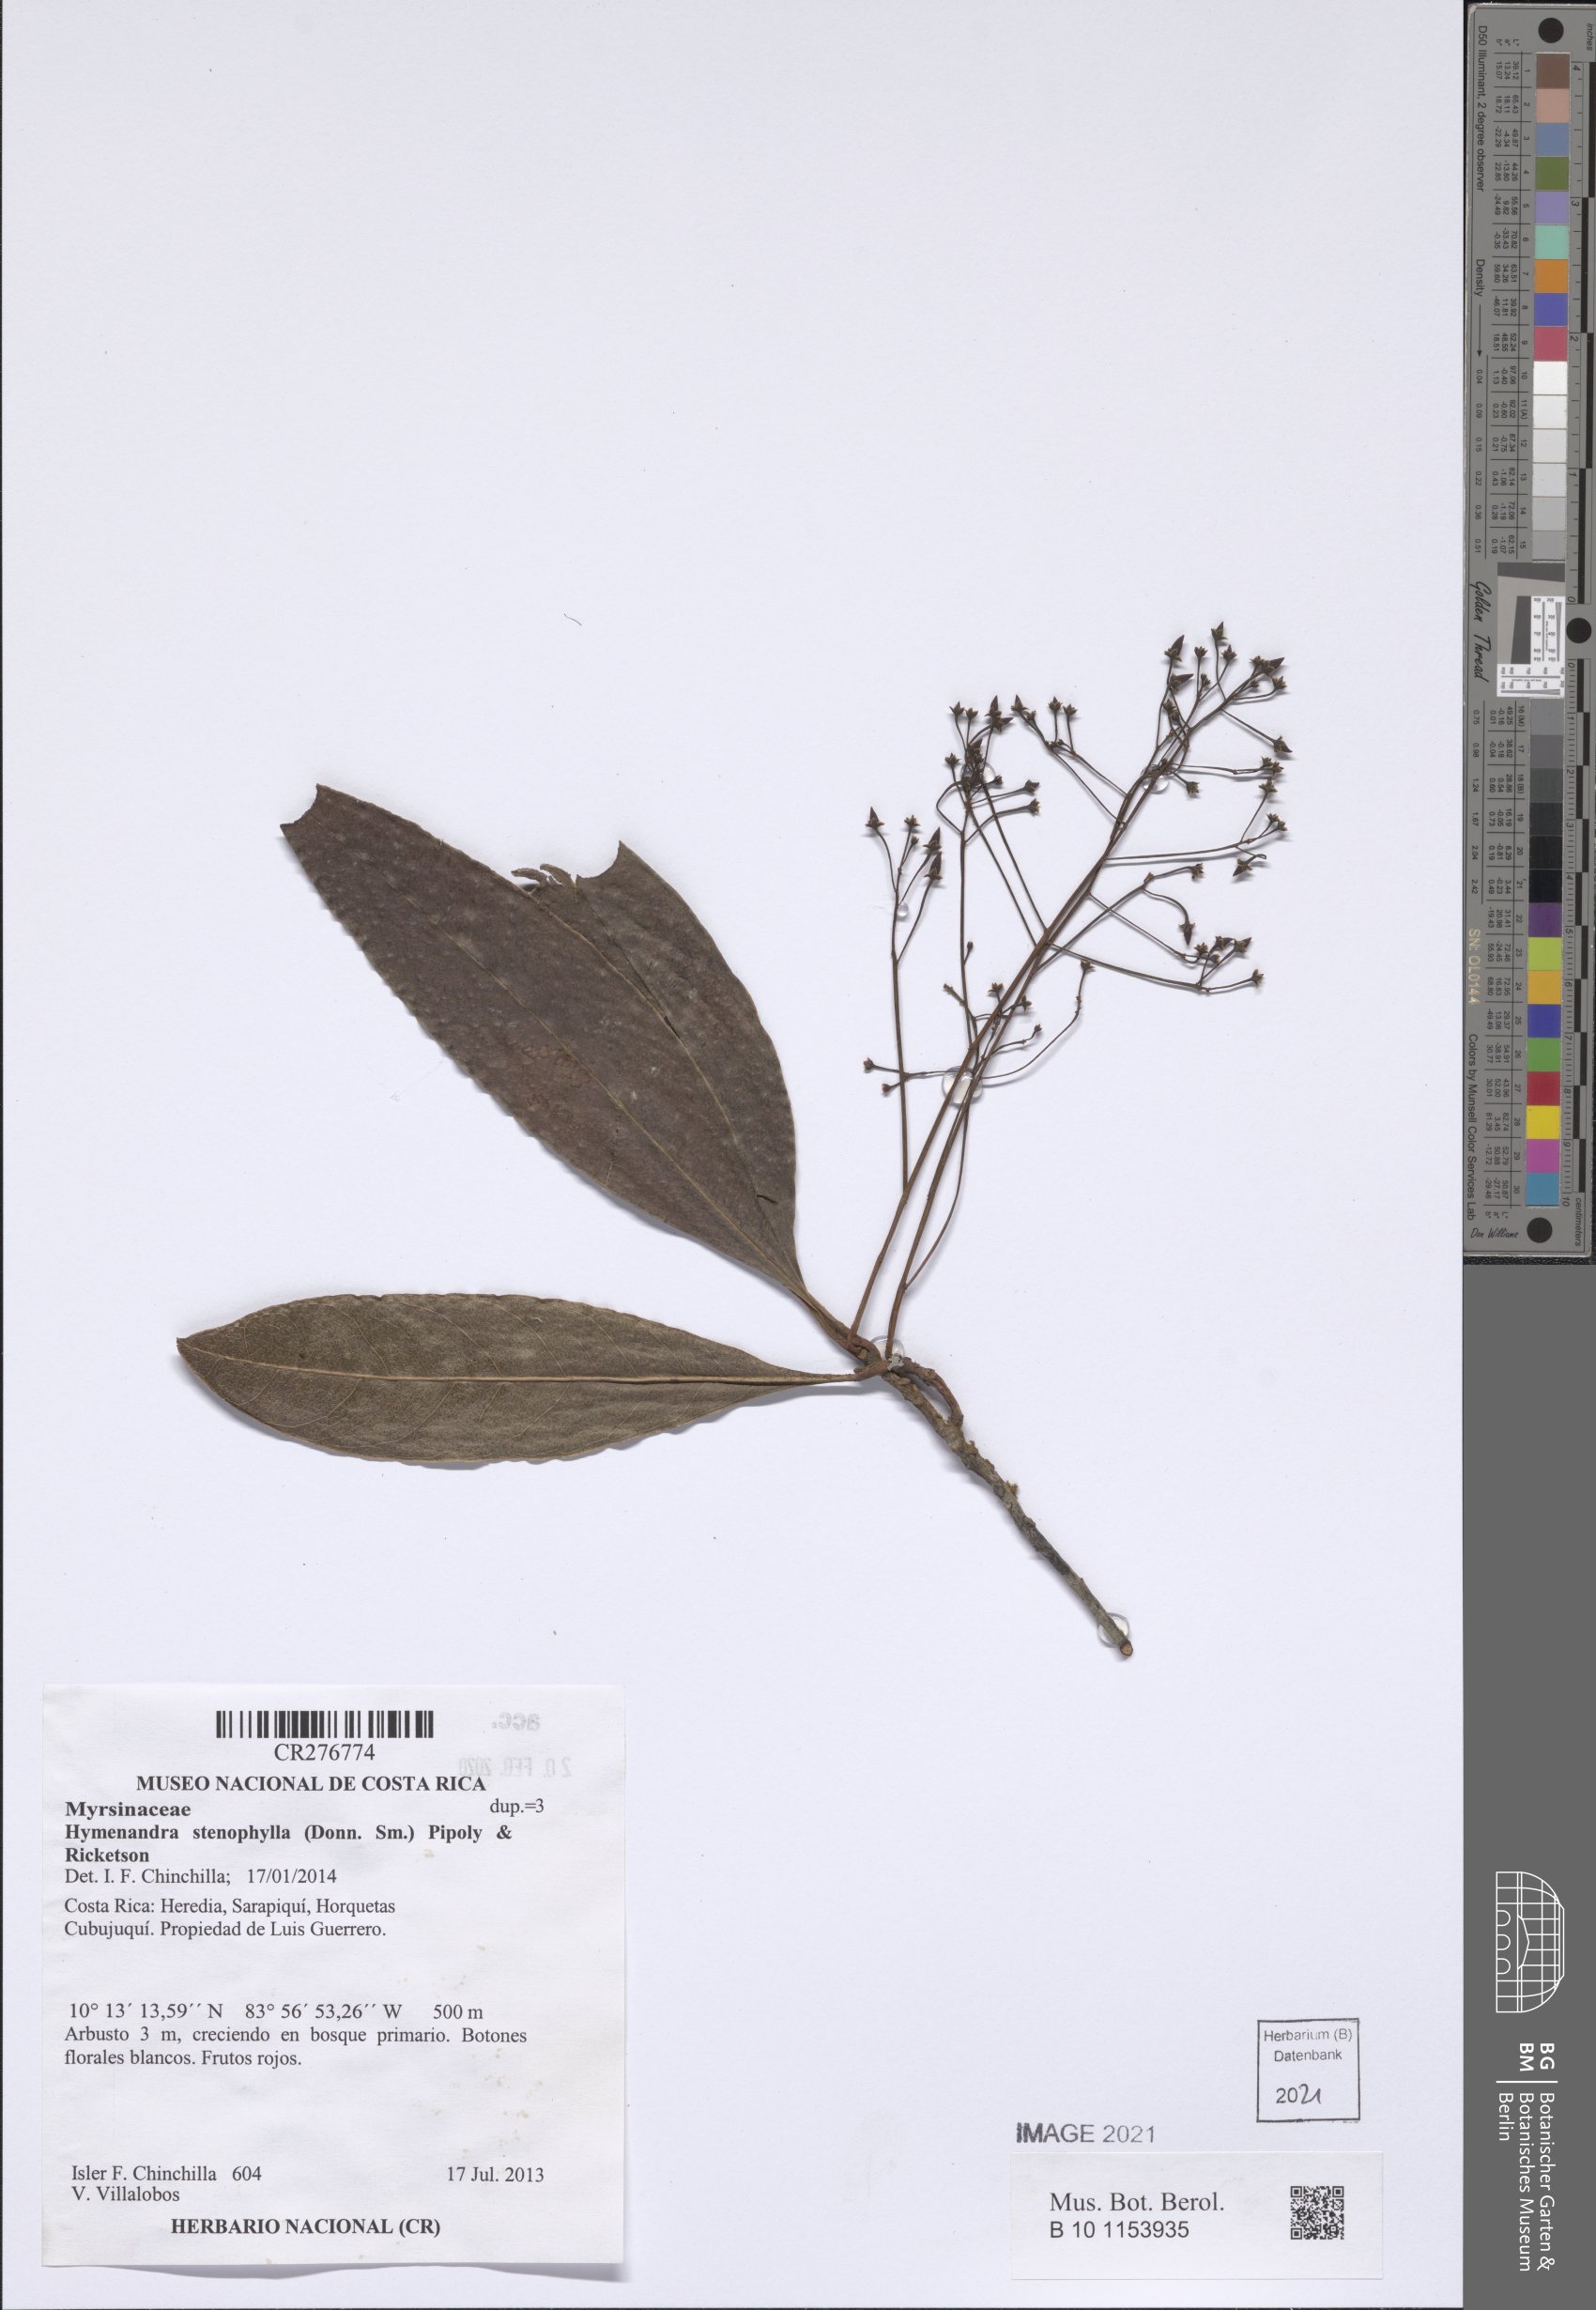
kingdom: Plantae
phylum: Tracheophyta
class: Magnoliopsida
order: Ericales
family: Primulaceae
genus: Hymenandra
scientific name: Hymenandra stenophylla
